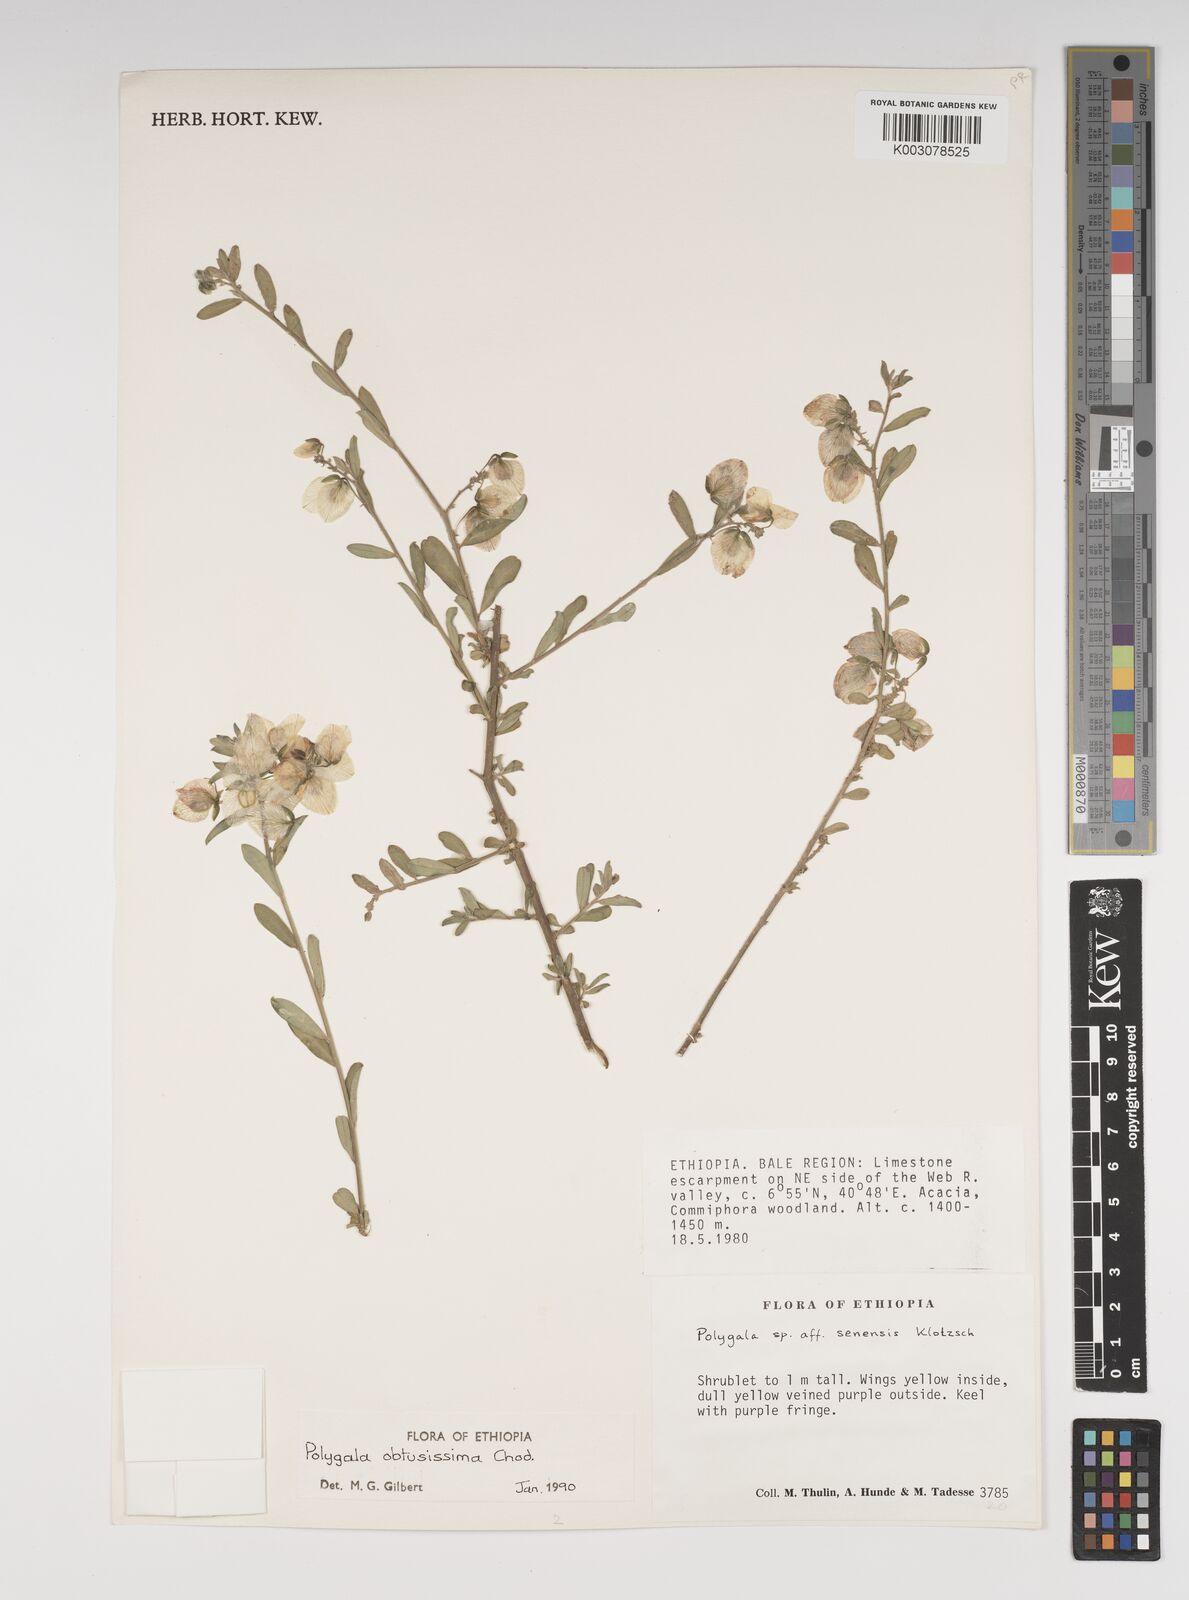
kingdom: Plantae
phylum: Tracheophyta
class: Magnoliopsida
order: Fabales
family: Polygalaceae
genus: Polygala
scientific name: Polygala senensis
